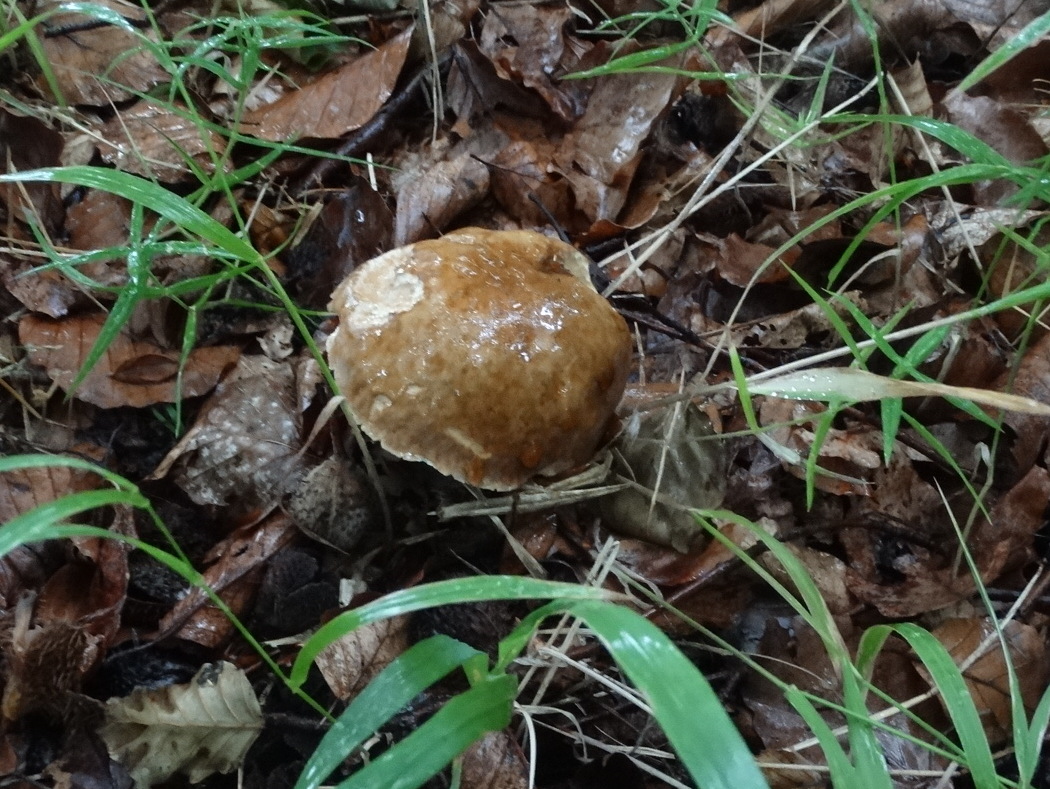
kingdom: Fungi
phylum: Basidiomycota
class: Agaricomycetes
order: Boletales
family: Boletaceae
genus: Boletus
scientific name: Boletus reticulatus
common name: sommer-rørhat
